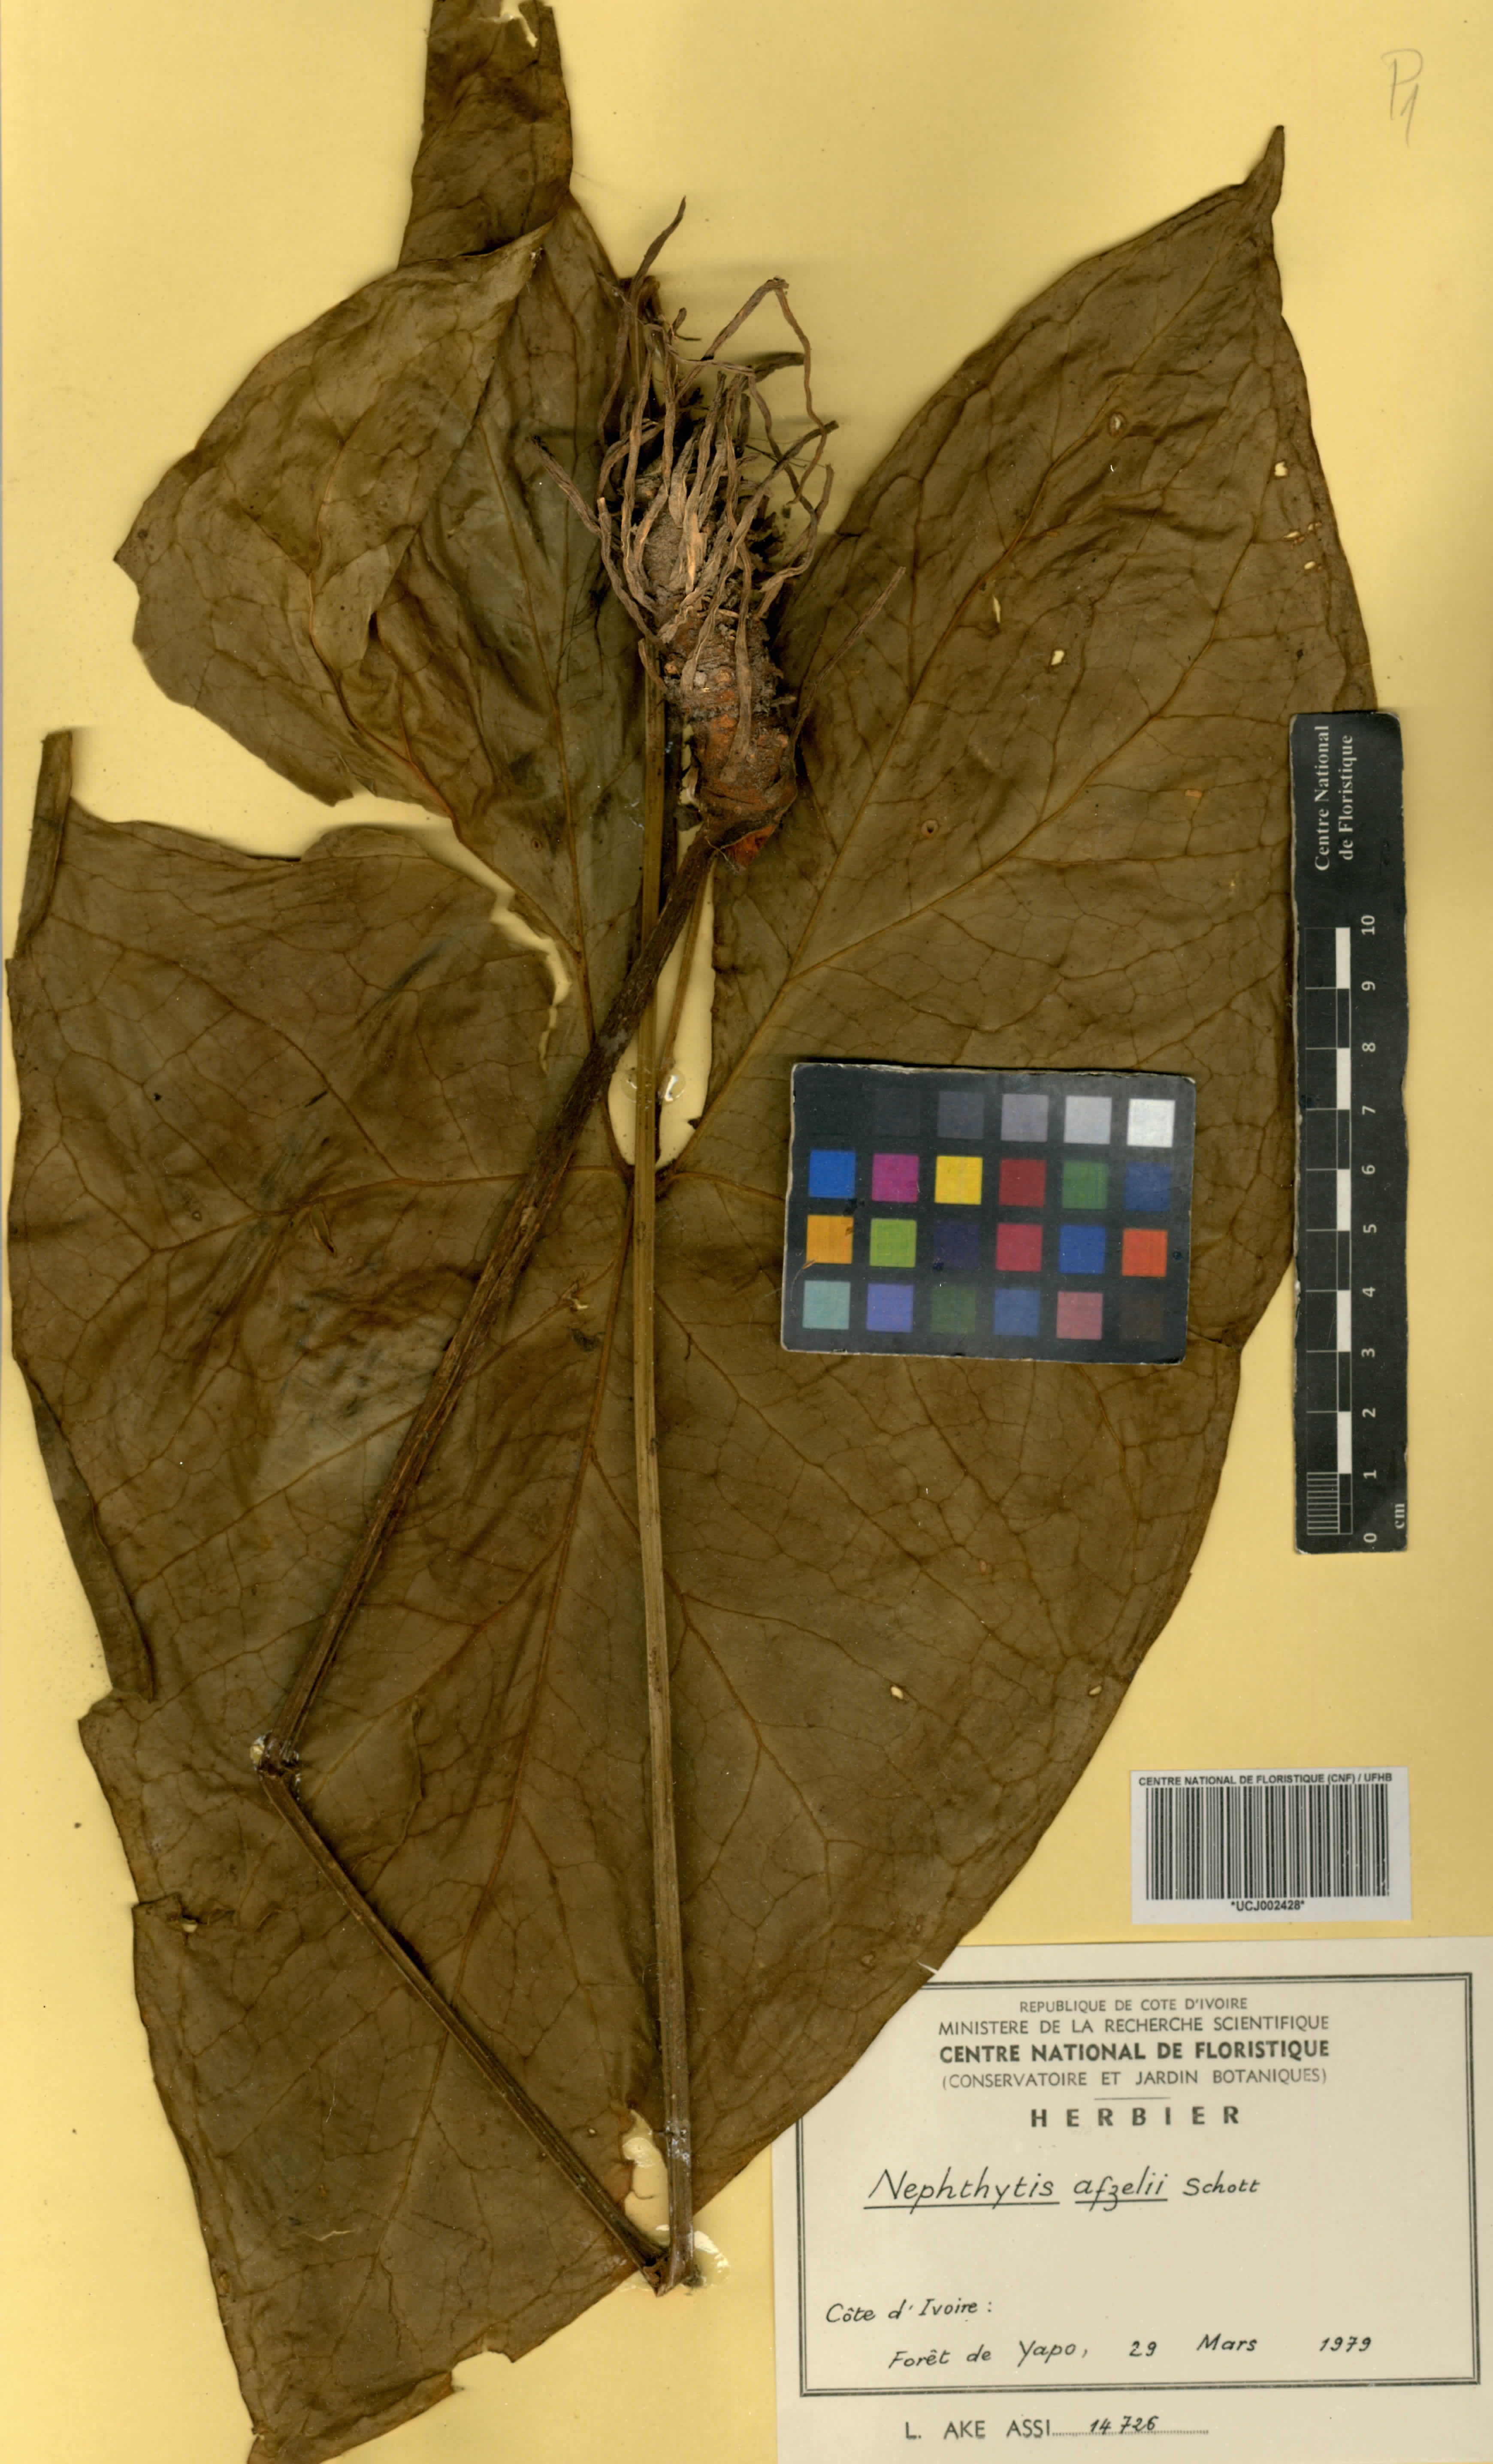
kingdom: Plantae
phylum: Tracheophyta
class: Liliopsida
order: Alismatales
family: Araceae
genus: Nephthytis
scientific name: Nephthytis afzelii
